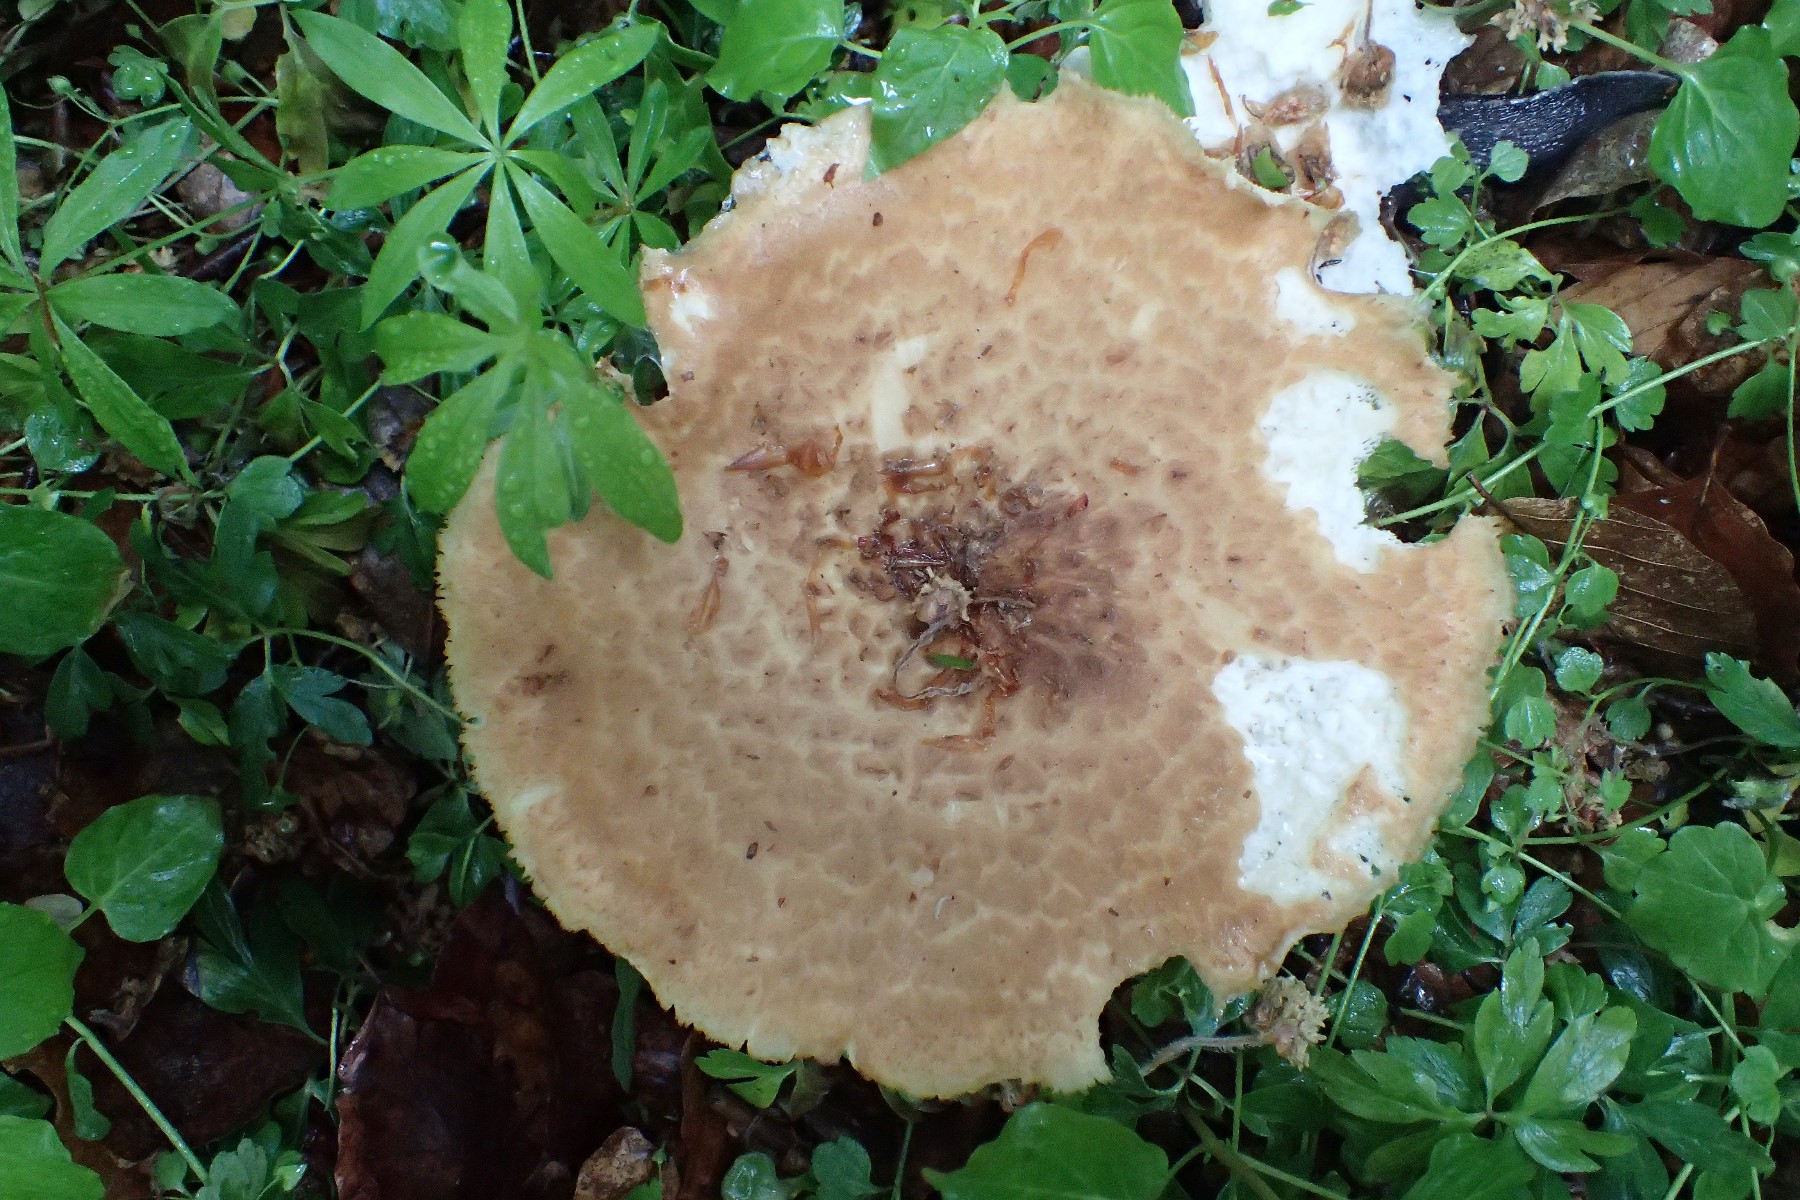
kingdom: Fungi
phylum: Basidiomycota
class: Agaricomycetes
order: Polyporales
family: Polyporaceae
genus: Cerioporus
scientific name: Cerioporus squamosus
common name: skællet stilkporesvamp
